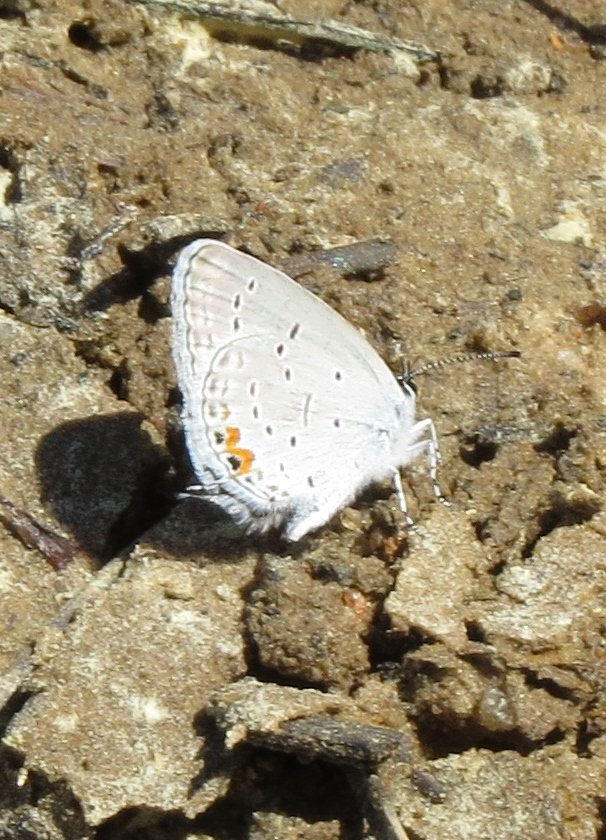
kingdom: Animalia
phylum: Arthropoda
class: Insecta
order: Lepidoptera
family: Lycaenidae
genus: Elkalyce
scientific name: Elkalyce comyntas
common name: Eastern Tailed-Blue
